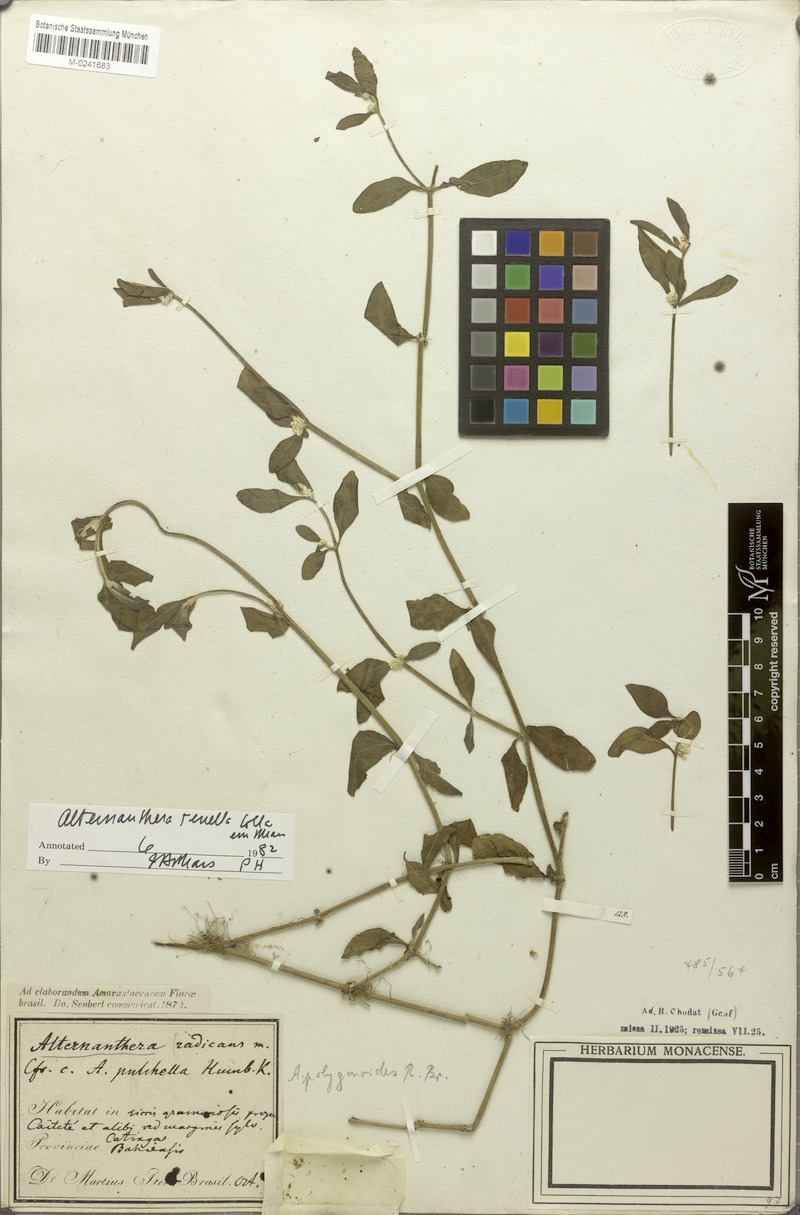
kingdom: Plantae
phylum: Tracheophyta
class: Magnoliopsida
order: Caryophyllales
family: Amaranthaceae
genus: Alternanthera
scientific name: Alternanthera ficoidea
